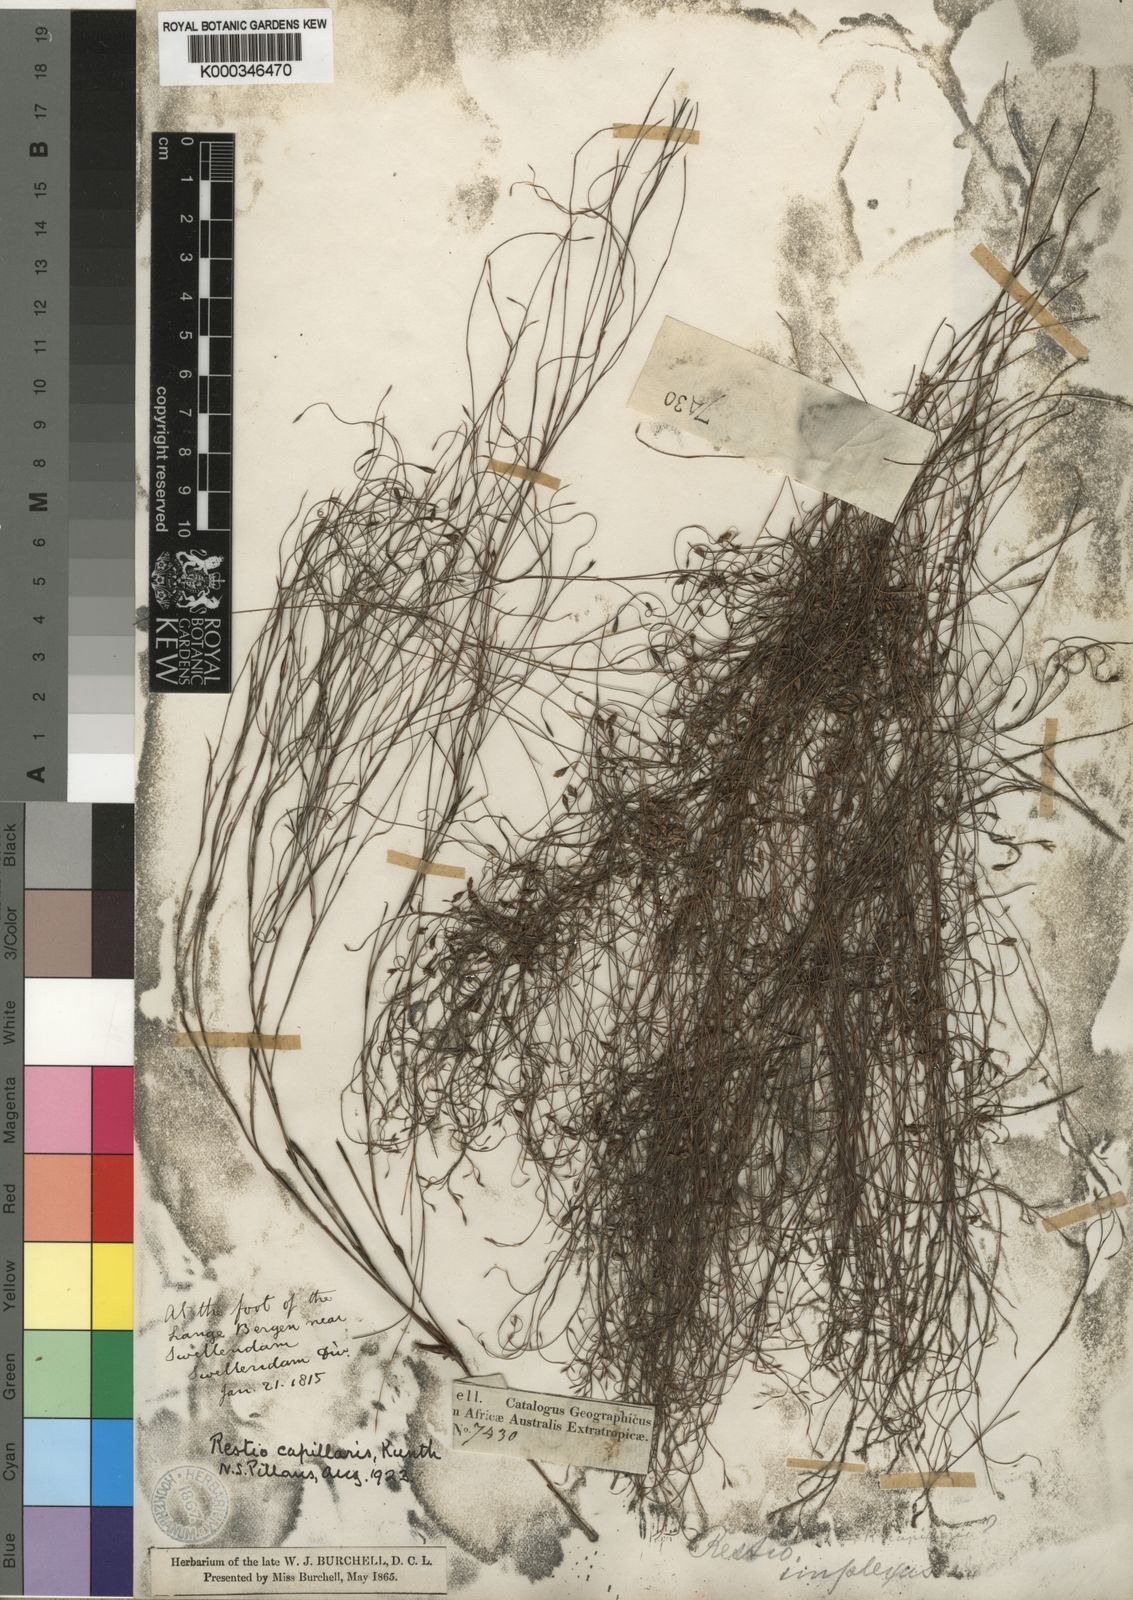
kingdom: Plantae
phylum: Tracheophyta
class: Liliopsida
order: Poales
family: Restionaceae
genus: Restio
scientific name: Restio capillaris
